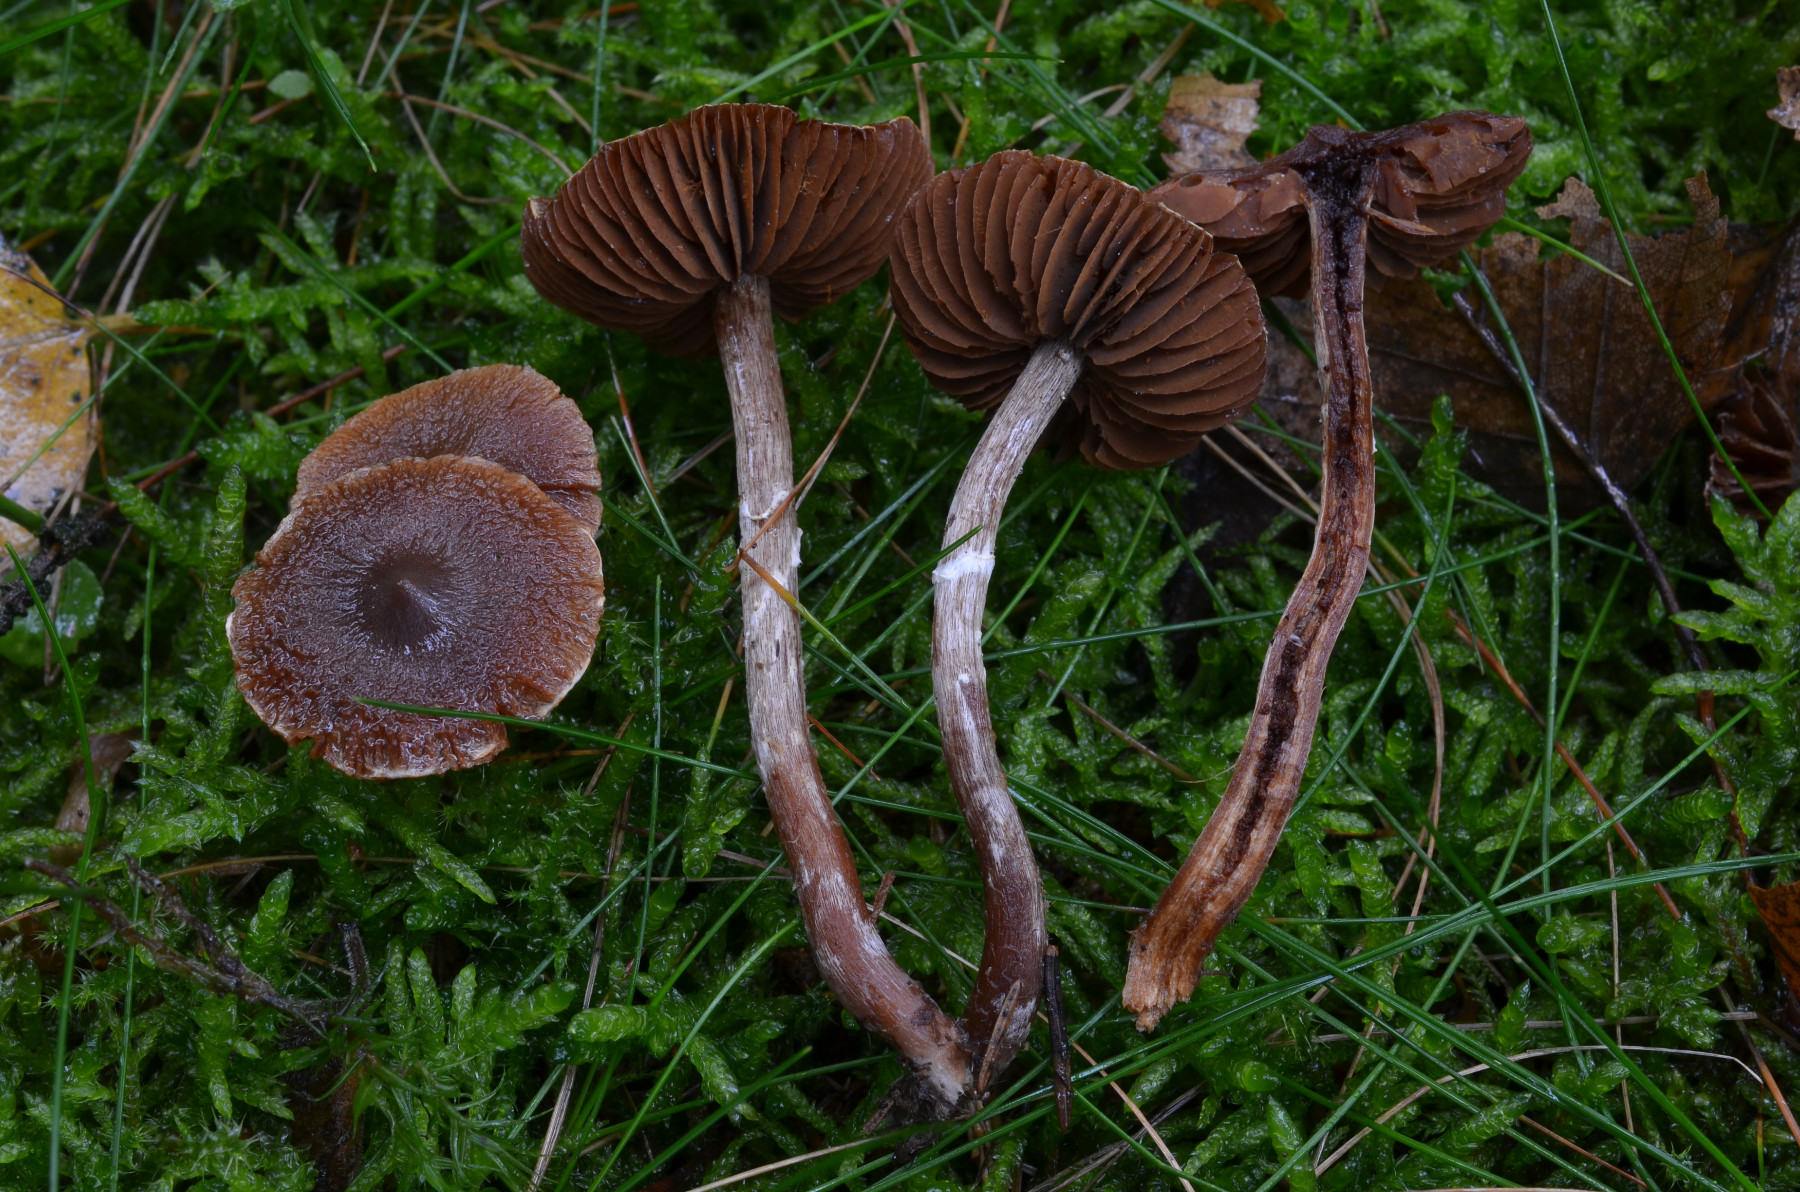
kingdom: Fungi
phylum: Basidiomycota
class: Agaricomycetes
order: Agaricales
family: Cortinariaceae
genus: Cortinarius
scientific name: Cortinarius flexipes
